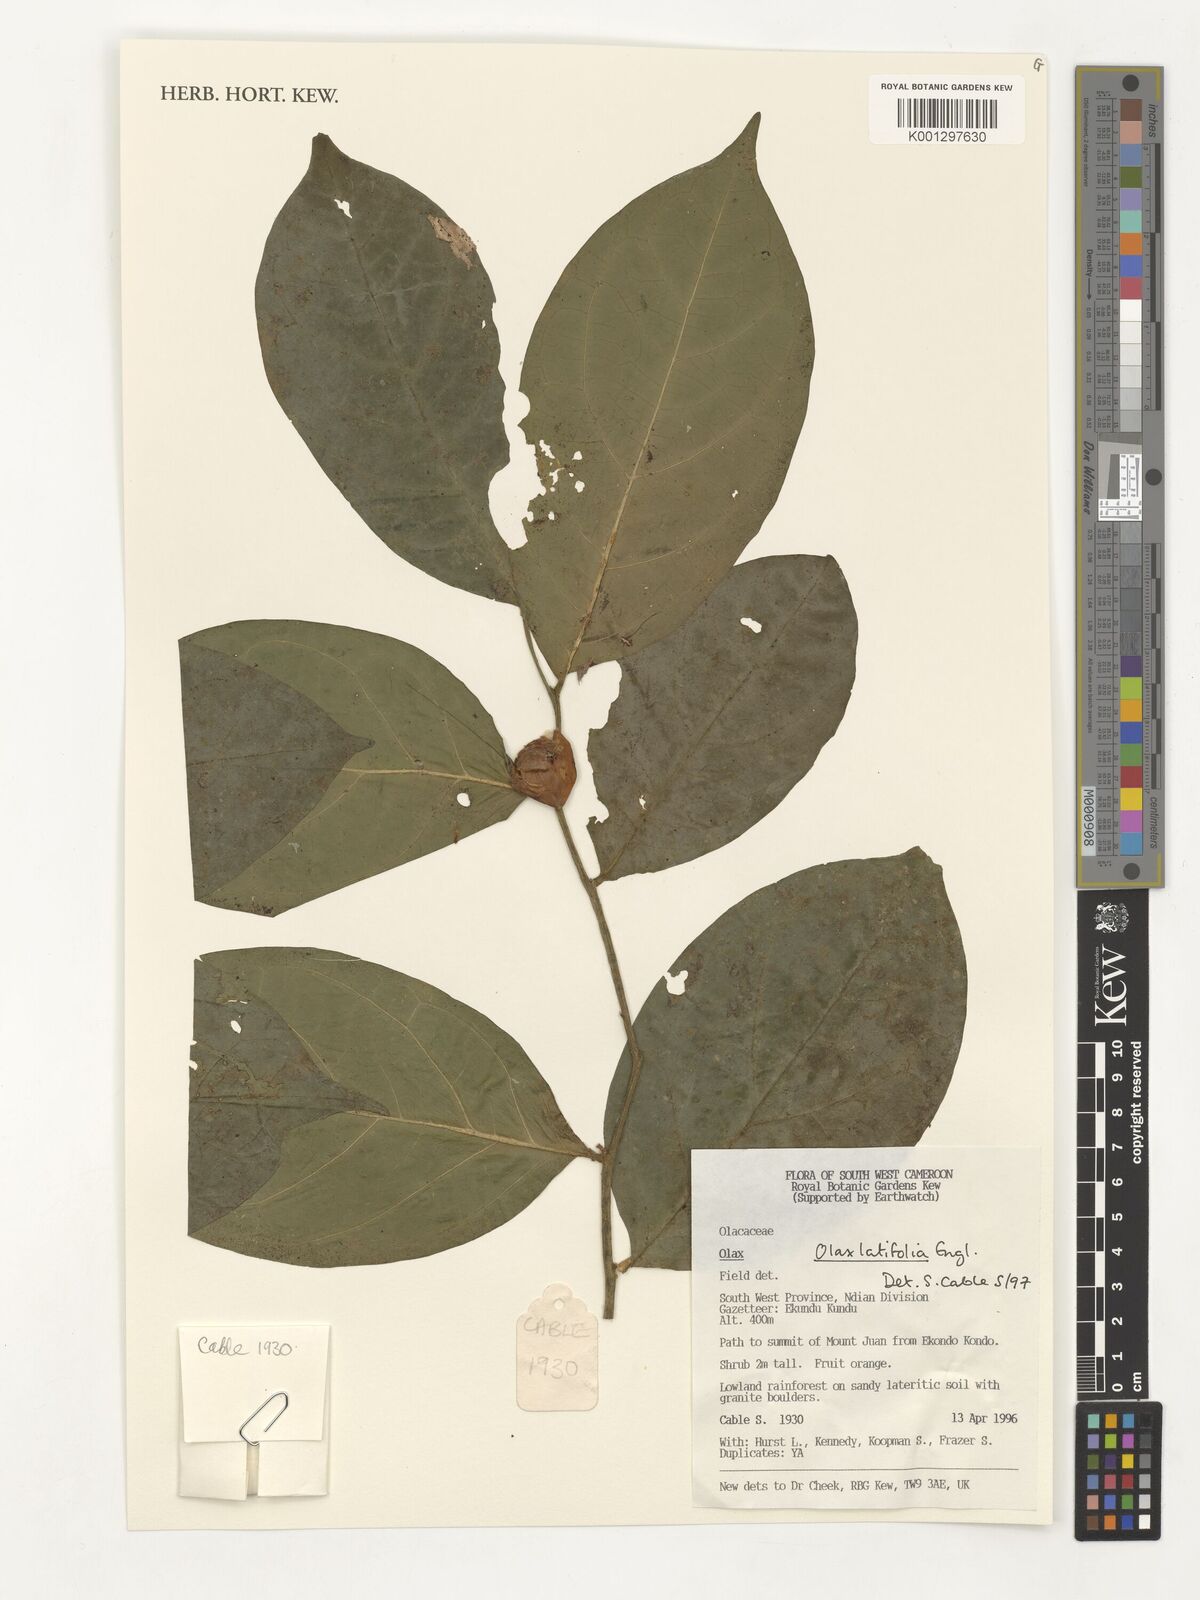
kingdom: Plantae
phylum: Tracheophyta
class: Magnoliopsida
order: Santalales
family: Olacaceae
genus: Olax
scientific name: Olax latifolia
